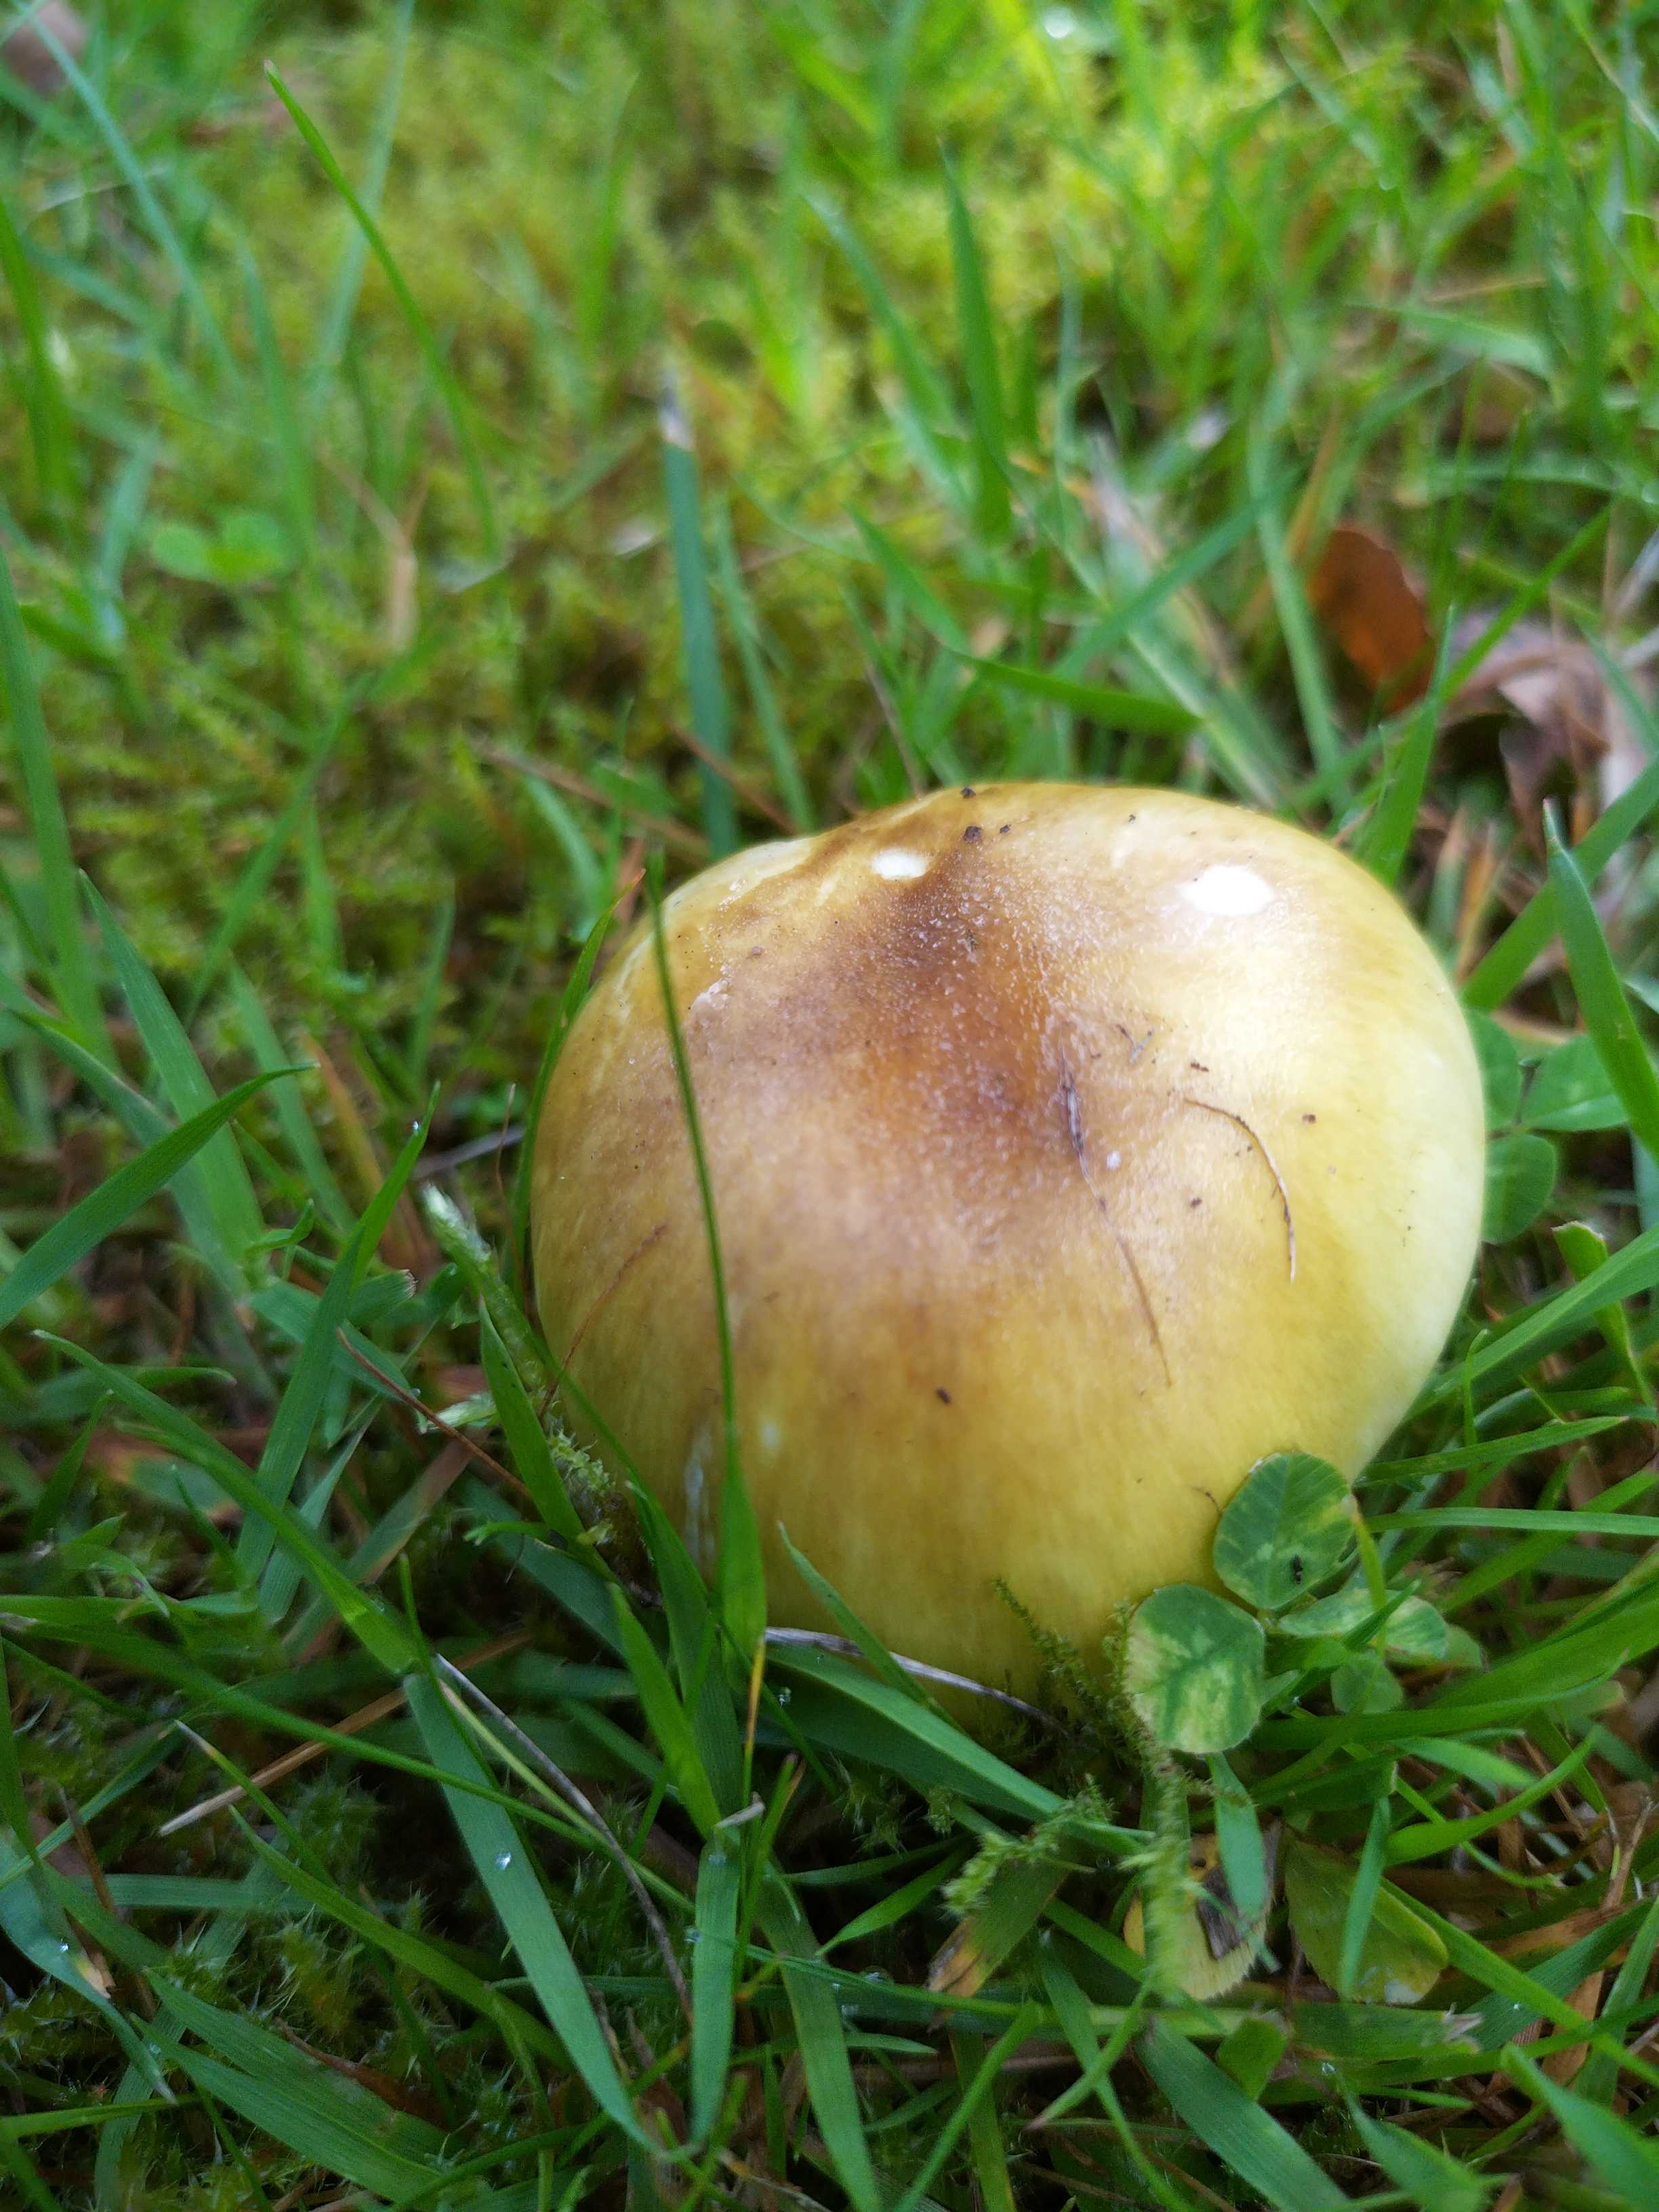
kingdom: Fungi
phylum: Basidiomycota
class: Agaricomycetes
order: Agaricales
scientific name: Agaricales
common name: champignonordenen
